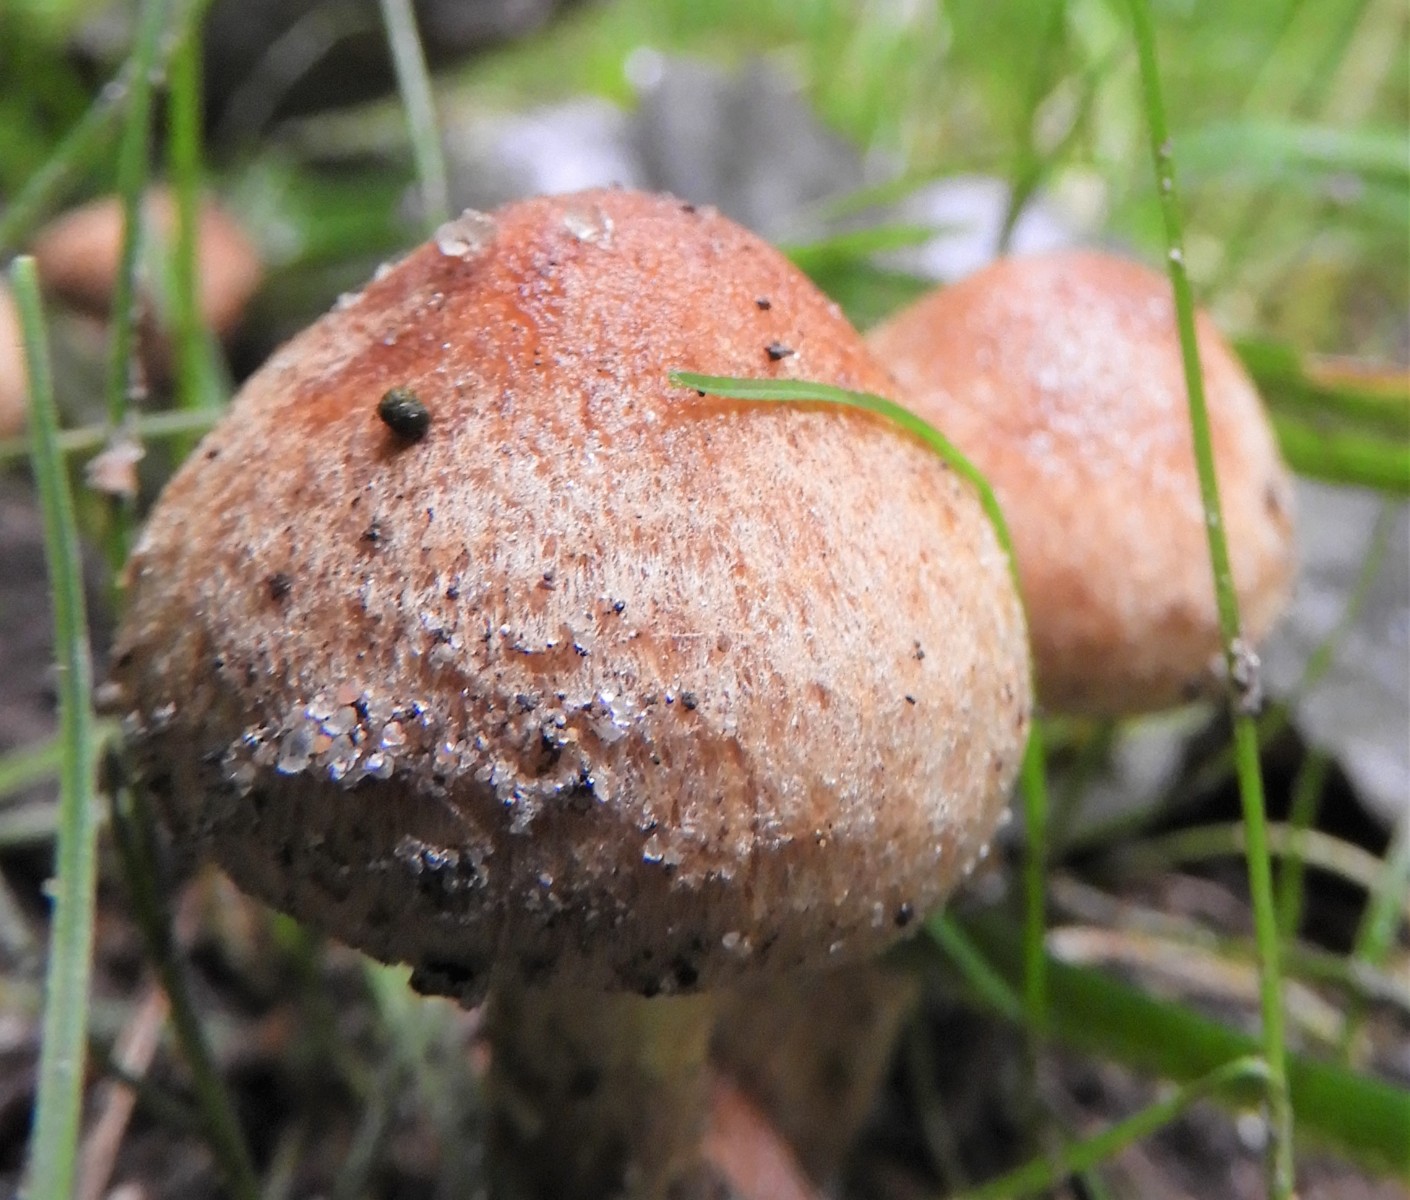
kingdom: Fungi
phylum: Basidiomycota
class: Agaricomycetes
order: Agaricales
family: Psathyrellaceae
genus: Lacrymaria
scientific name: Lacrymaria lacrymabunda
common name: grædende mørkhat
